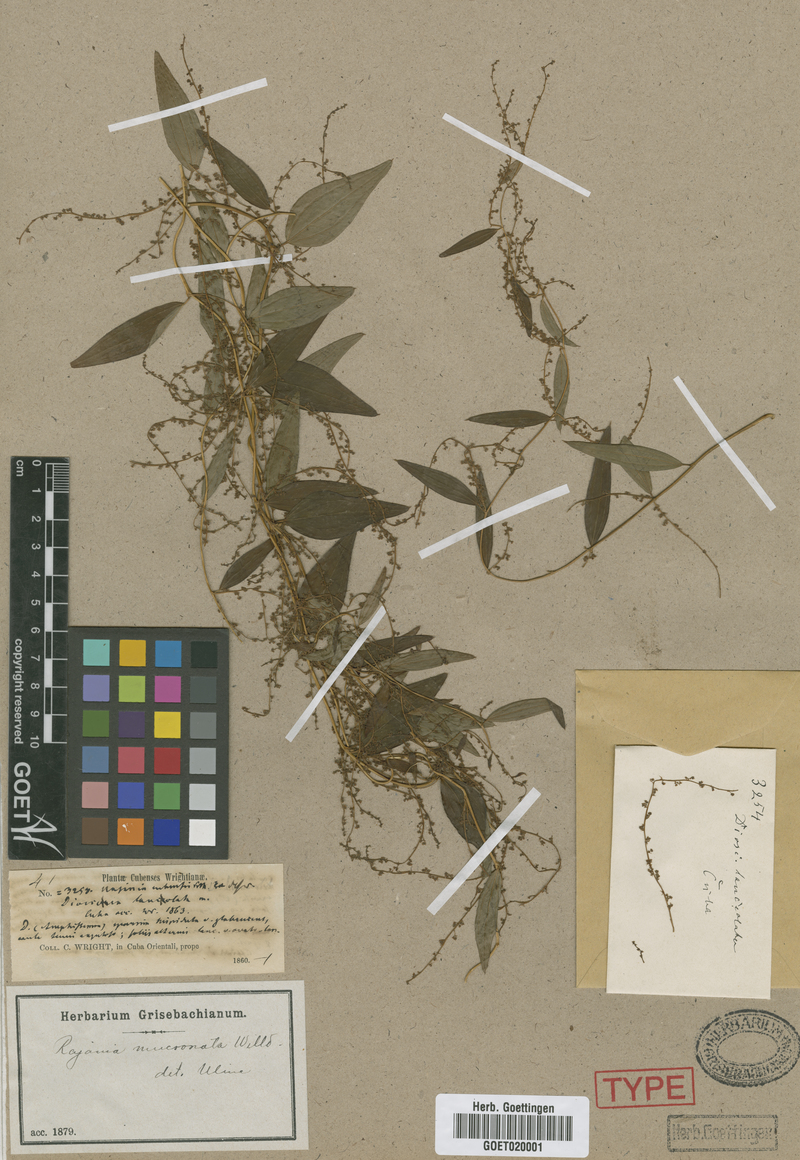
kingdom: Plantae
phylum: Tracheophyta
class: Liliopsida
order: Dioscoreales
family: Dioscoreaceae
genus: Dioscorea
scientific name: Dioscorea quinquefolia
